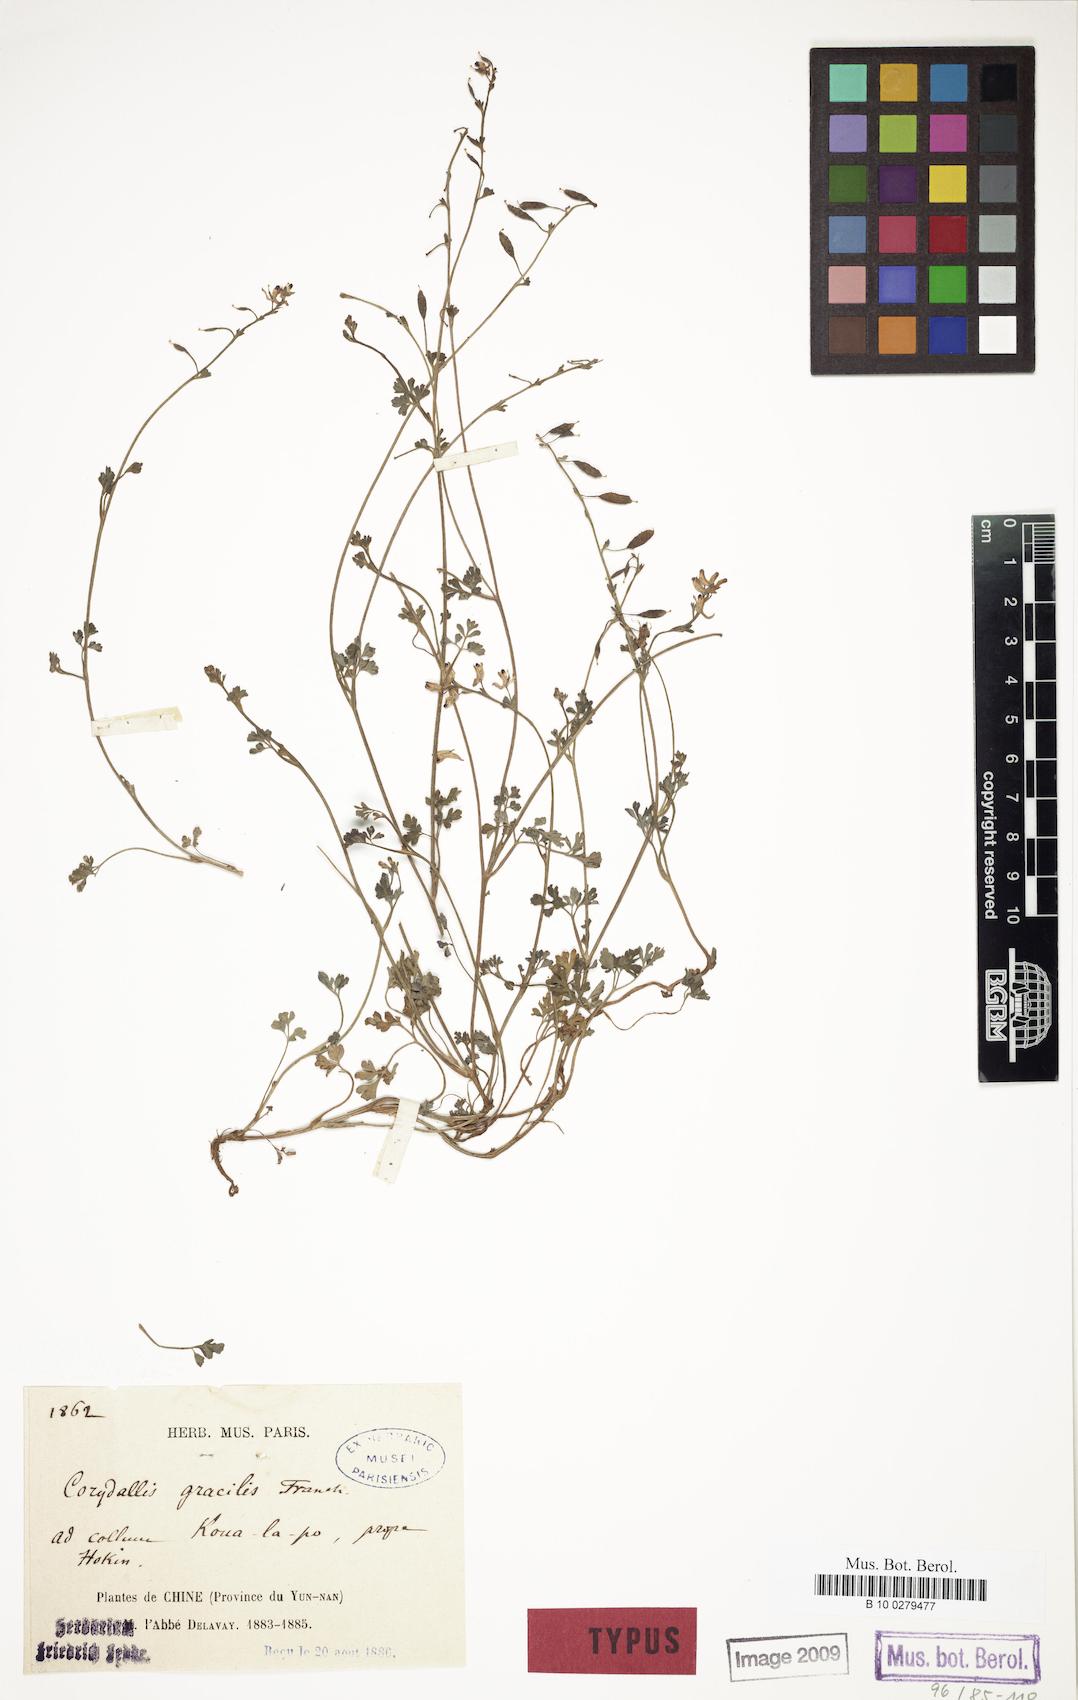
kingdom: Plantae
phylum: Tracheophyta
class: Magnoliopsida
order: Ranunculales
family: Papaveraceae
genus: Corydalis
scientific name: Corydalis gracillima
